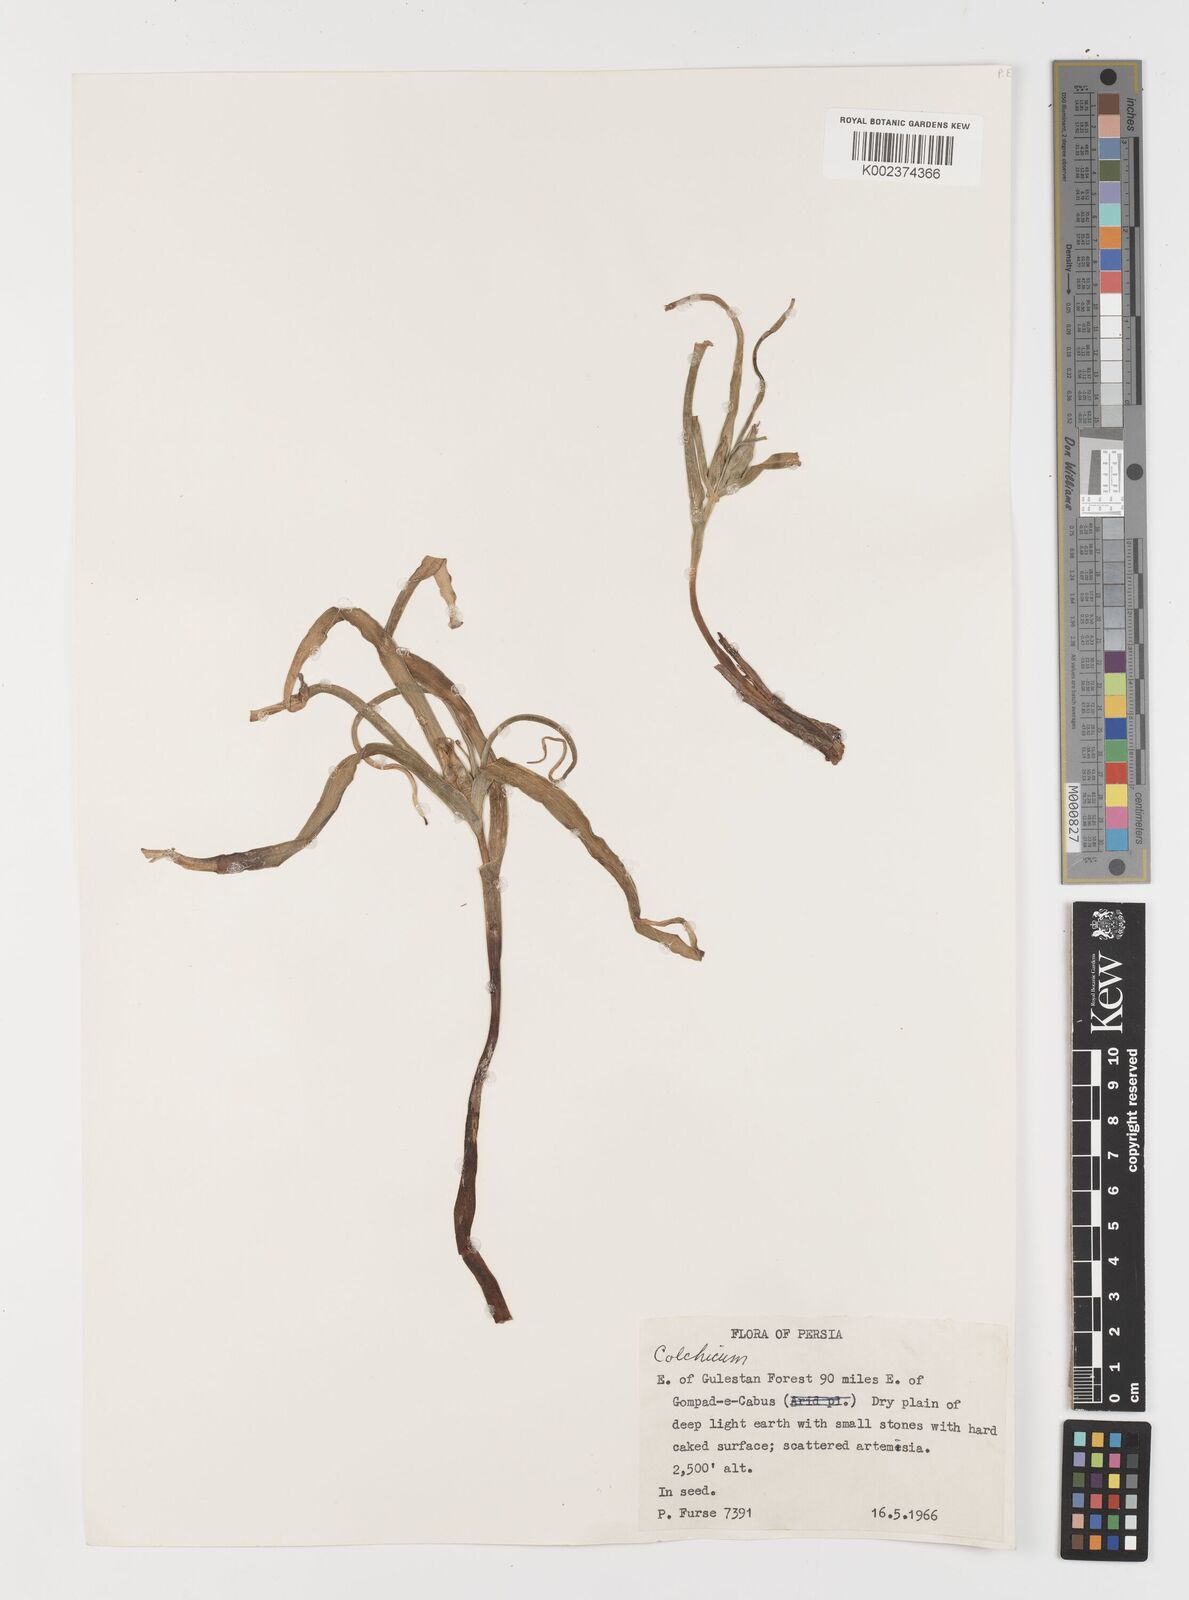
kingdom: Plantae
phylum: Tracheophyta
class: Liliopsida
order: Liliales
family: Colchicaceae
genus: Colchicum
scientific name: Colchicum
